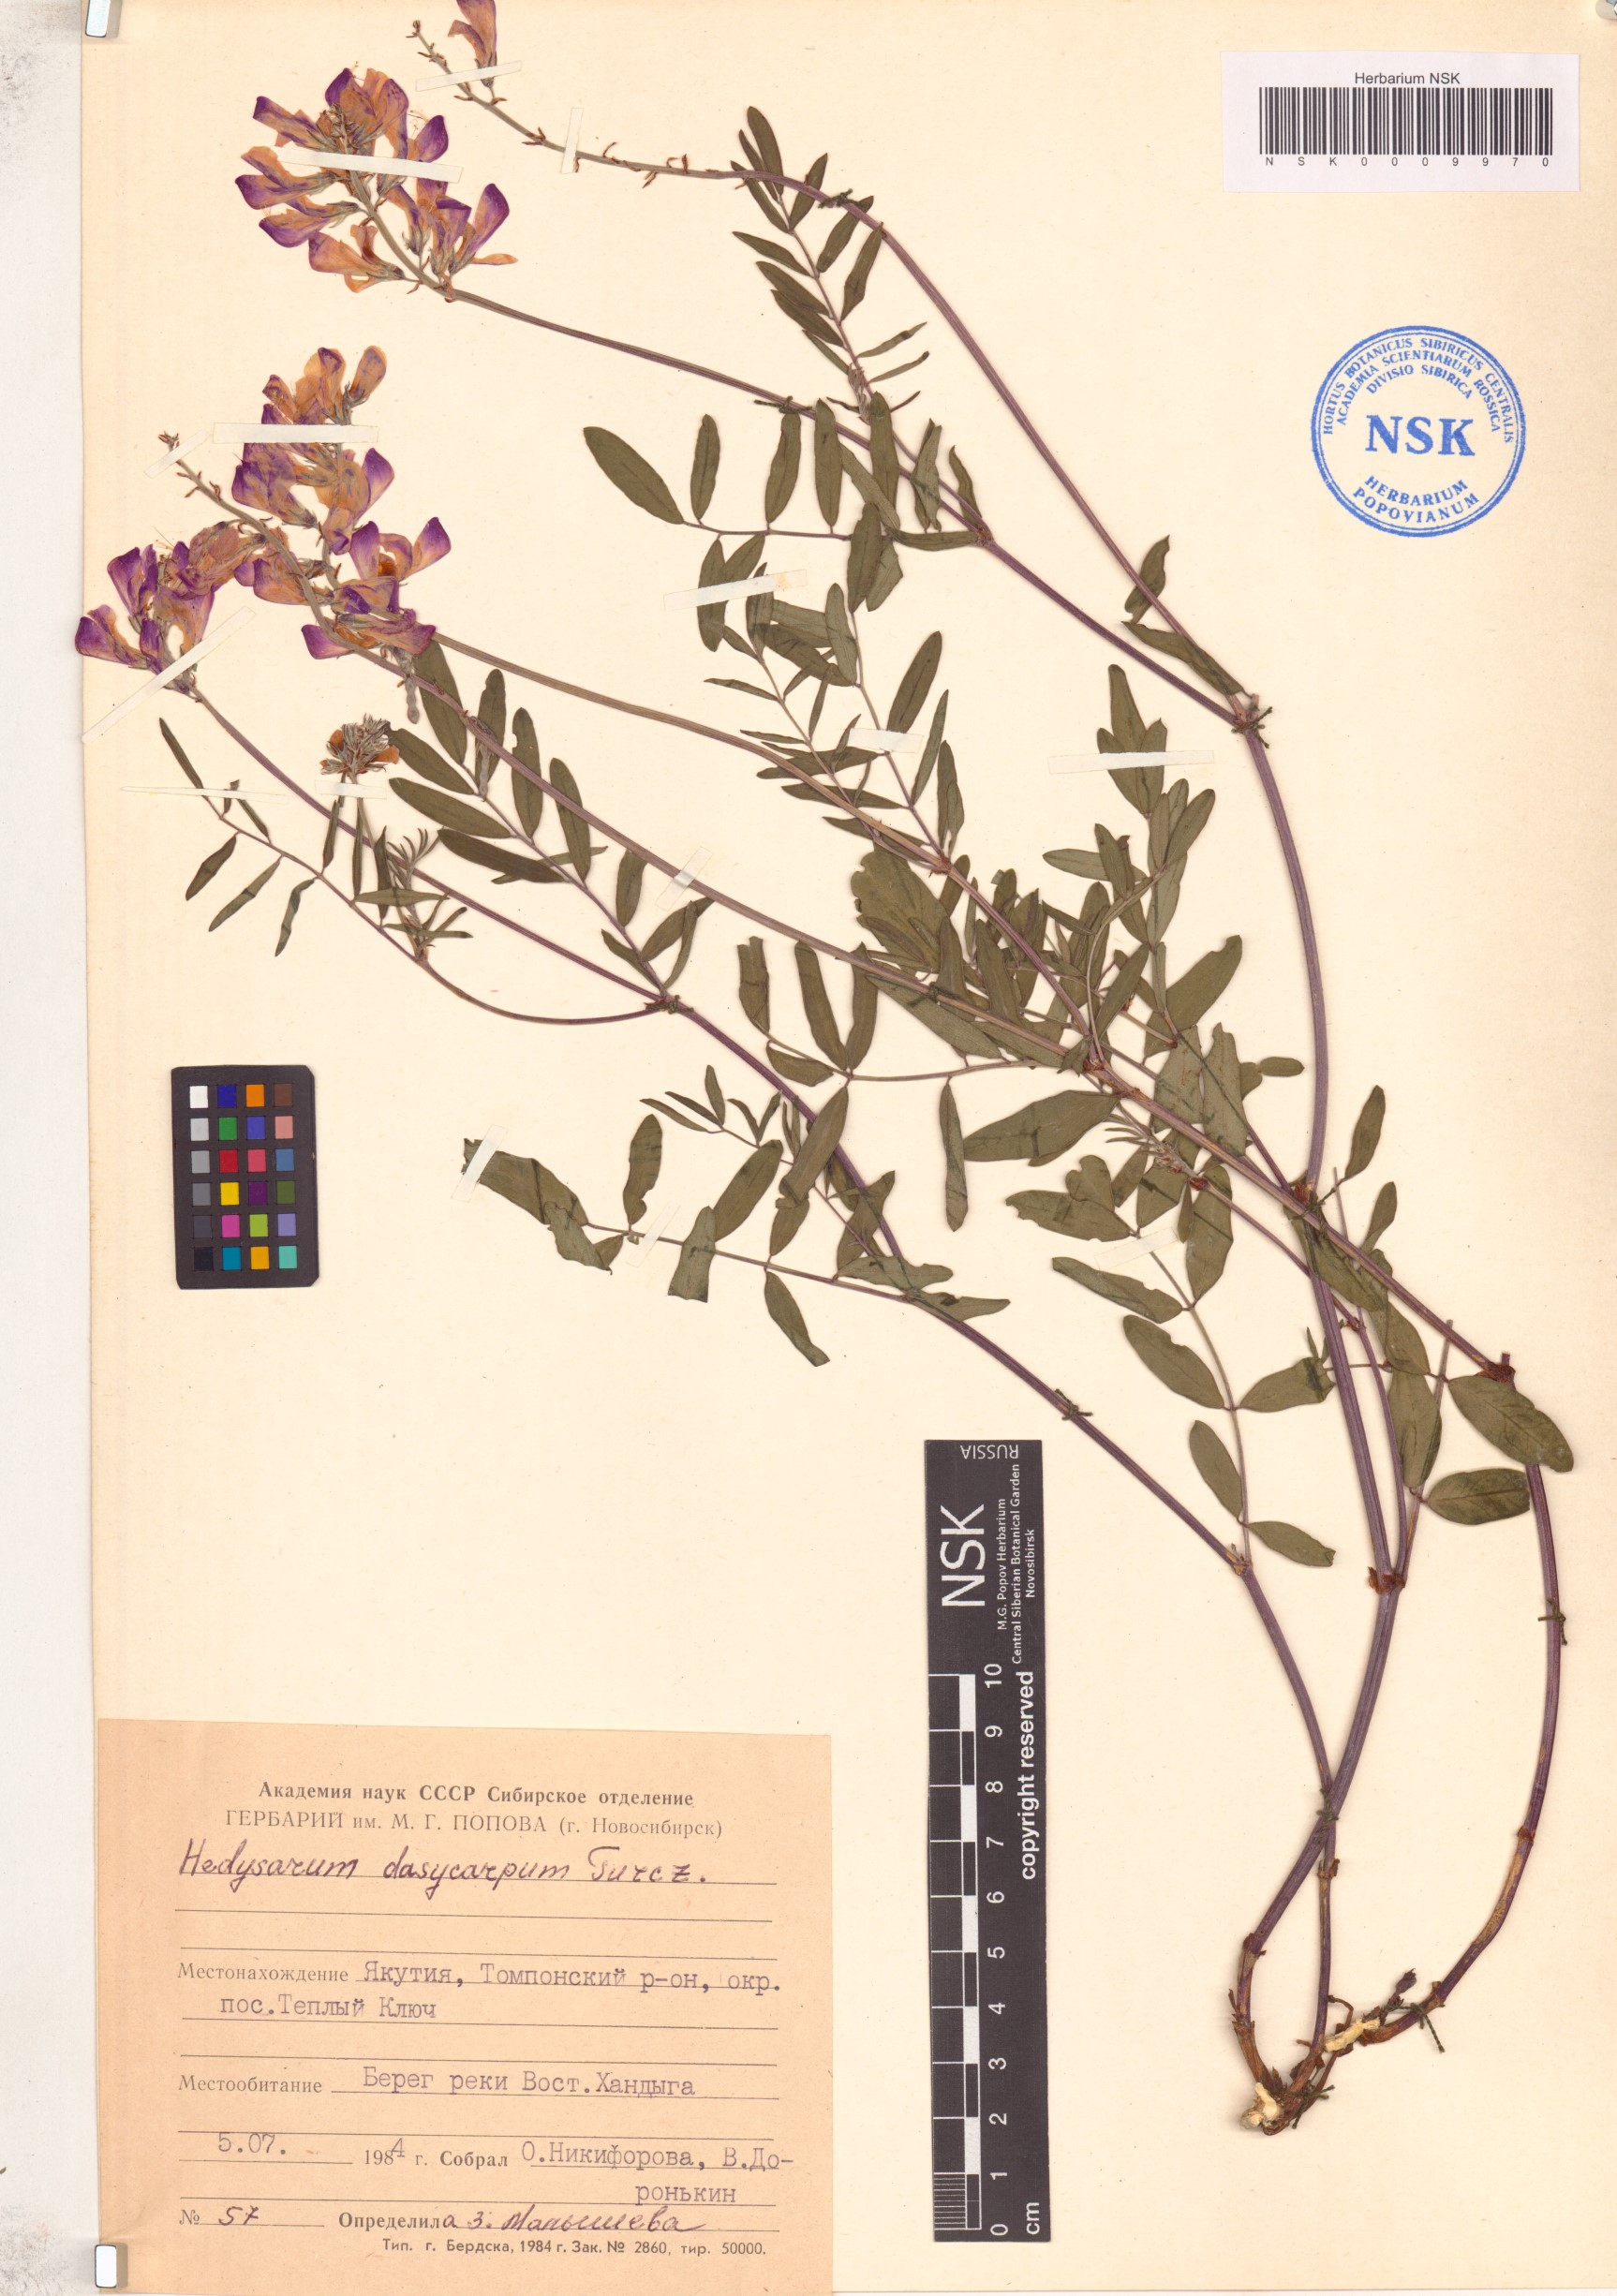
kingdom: Plantae
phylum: Tracheophyta
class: Magnoliopsida
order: Fabales
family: Fabaceae
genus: Hedysarum
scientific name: Hedysarum dasycarpum
